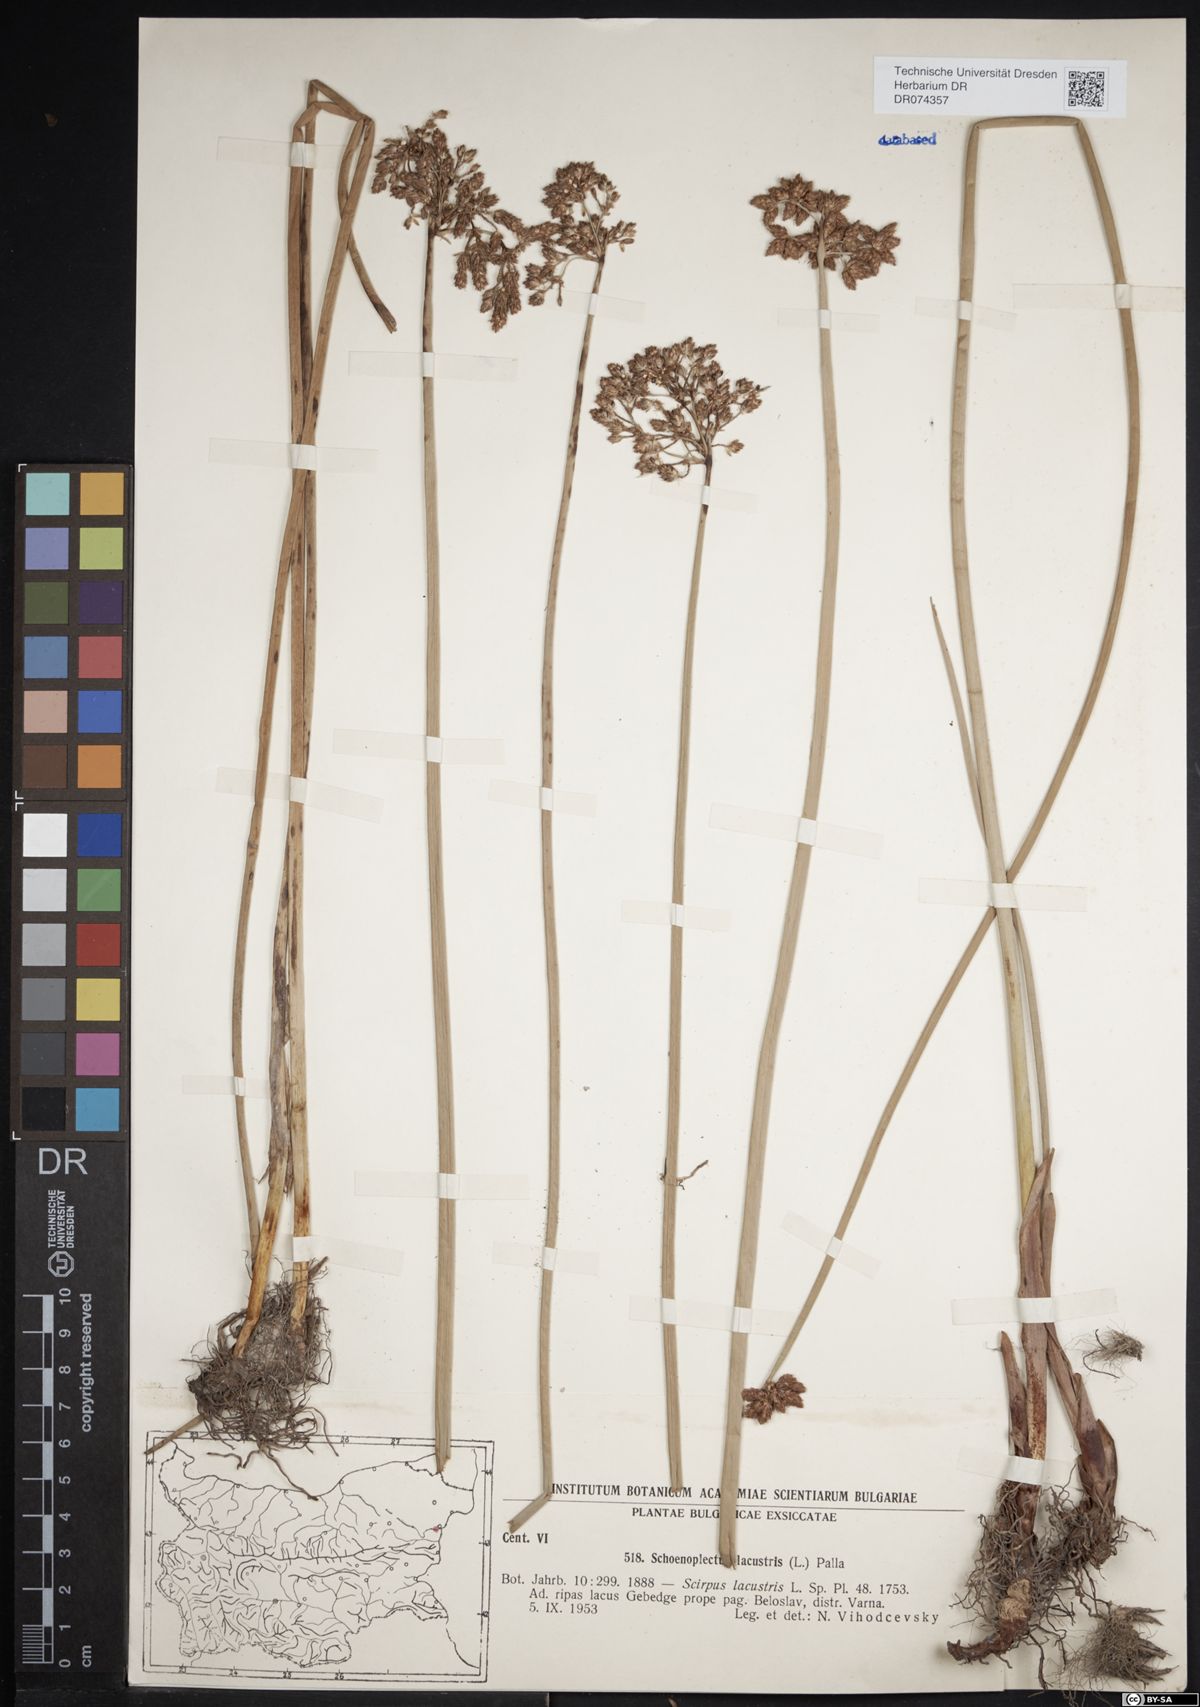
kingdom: Plantae
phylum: Tracheophyta
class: Liliopsida
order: Poales
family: Cyperaceae
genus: Schoenoplectus
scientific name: Schoenoplectus lacustris
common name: Common club-rush
